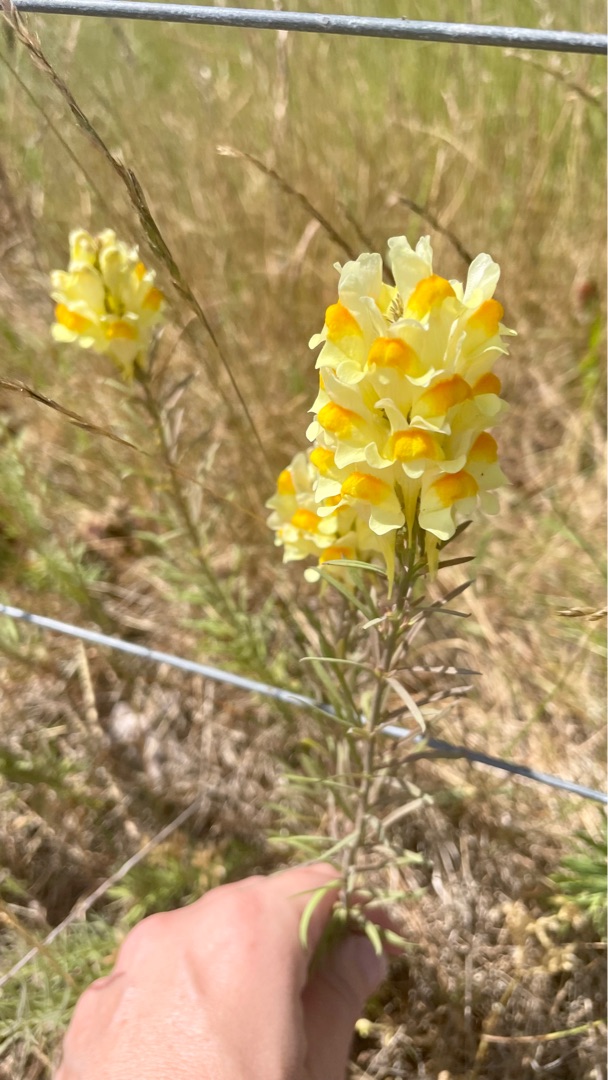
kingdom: Plantae
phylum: Tracheophyta
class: Magnoliopsida
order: Lamiales
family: Plantaginaceae
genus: Linaria
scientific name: Linaria vulgaris
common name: Almindelig torskemund
